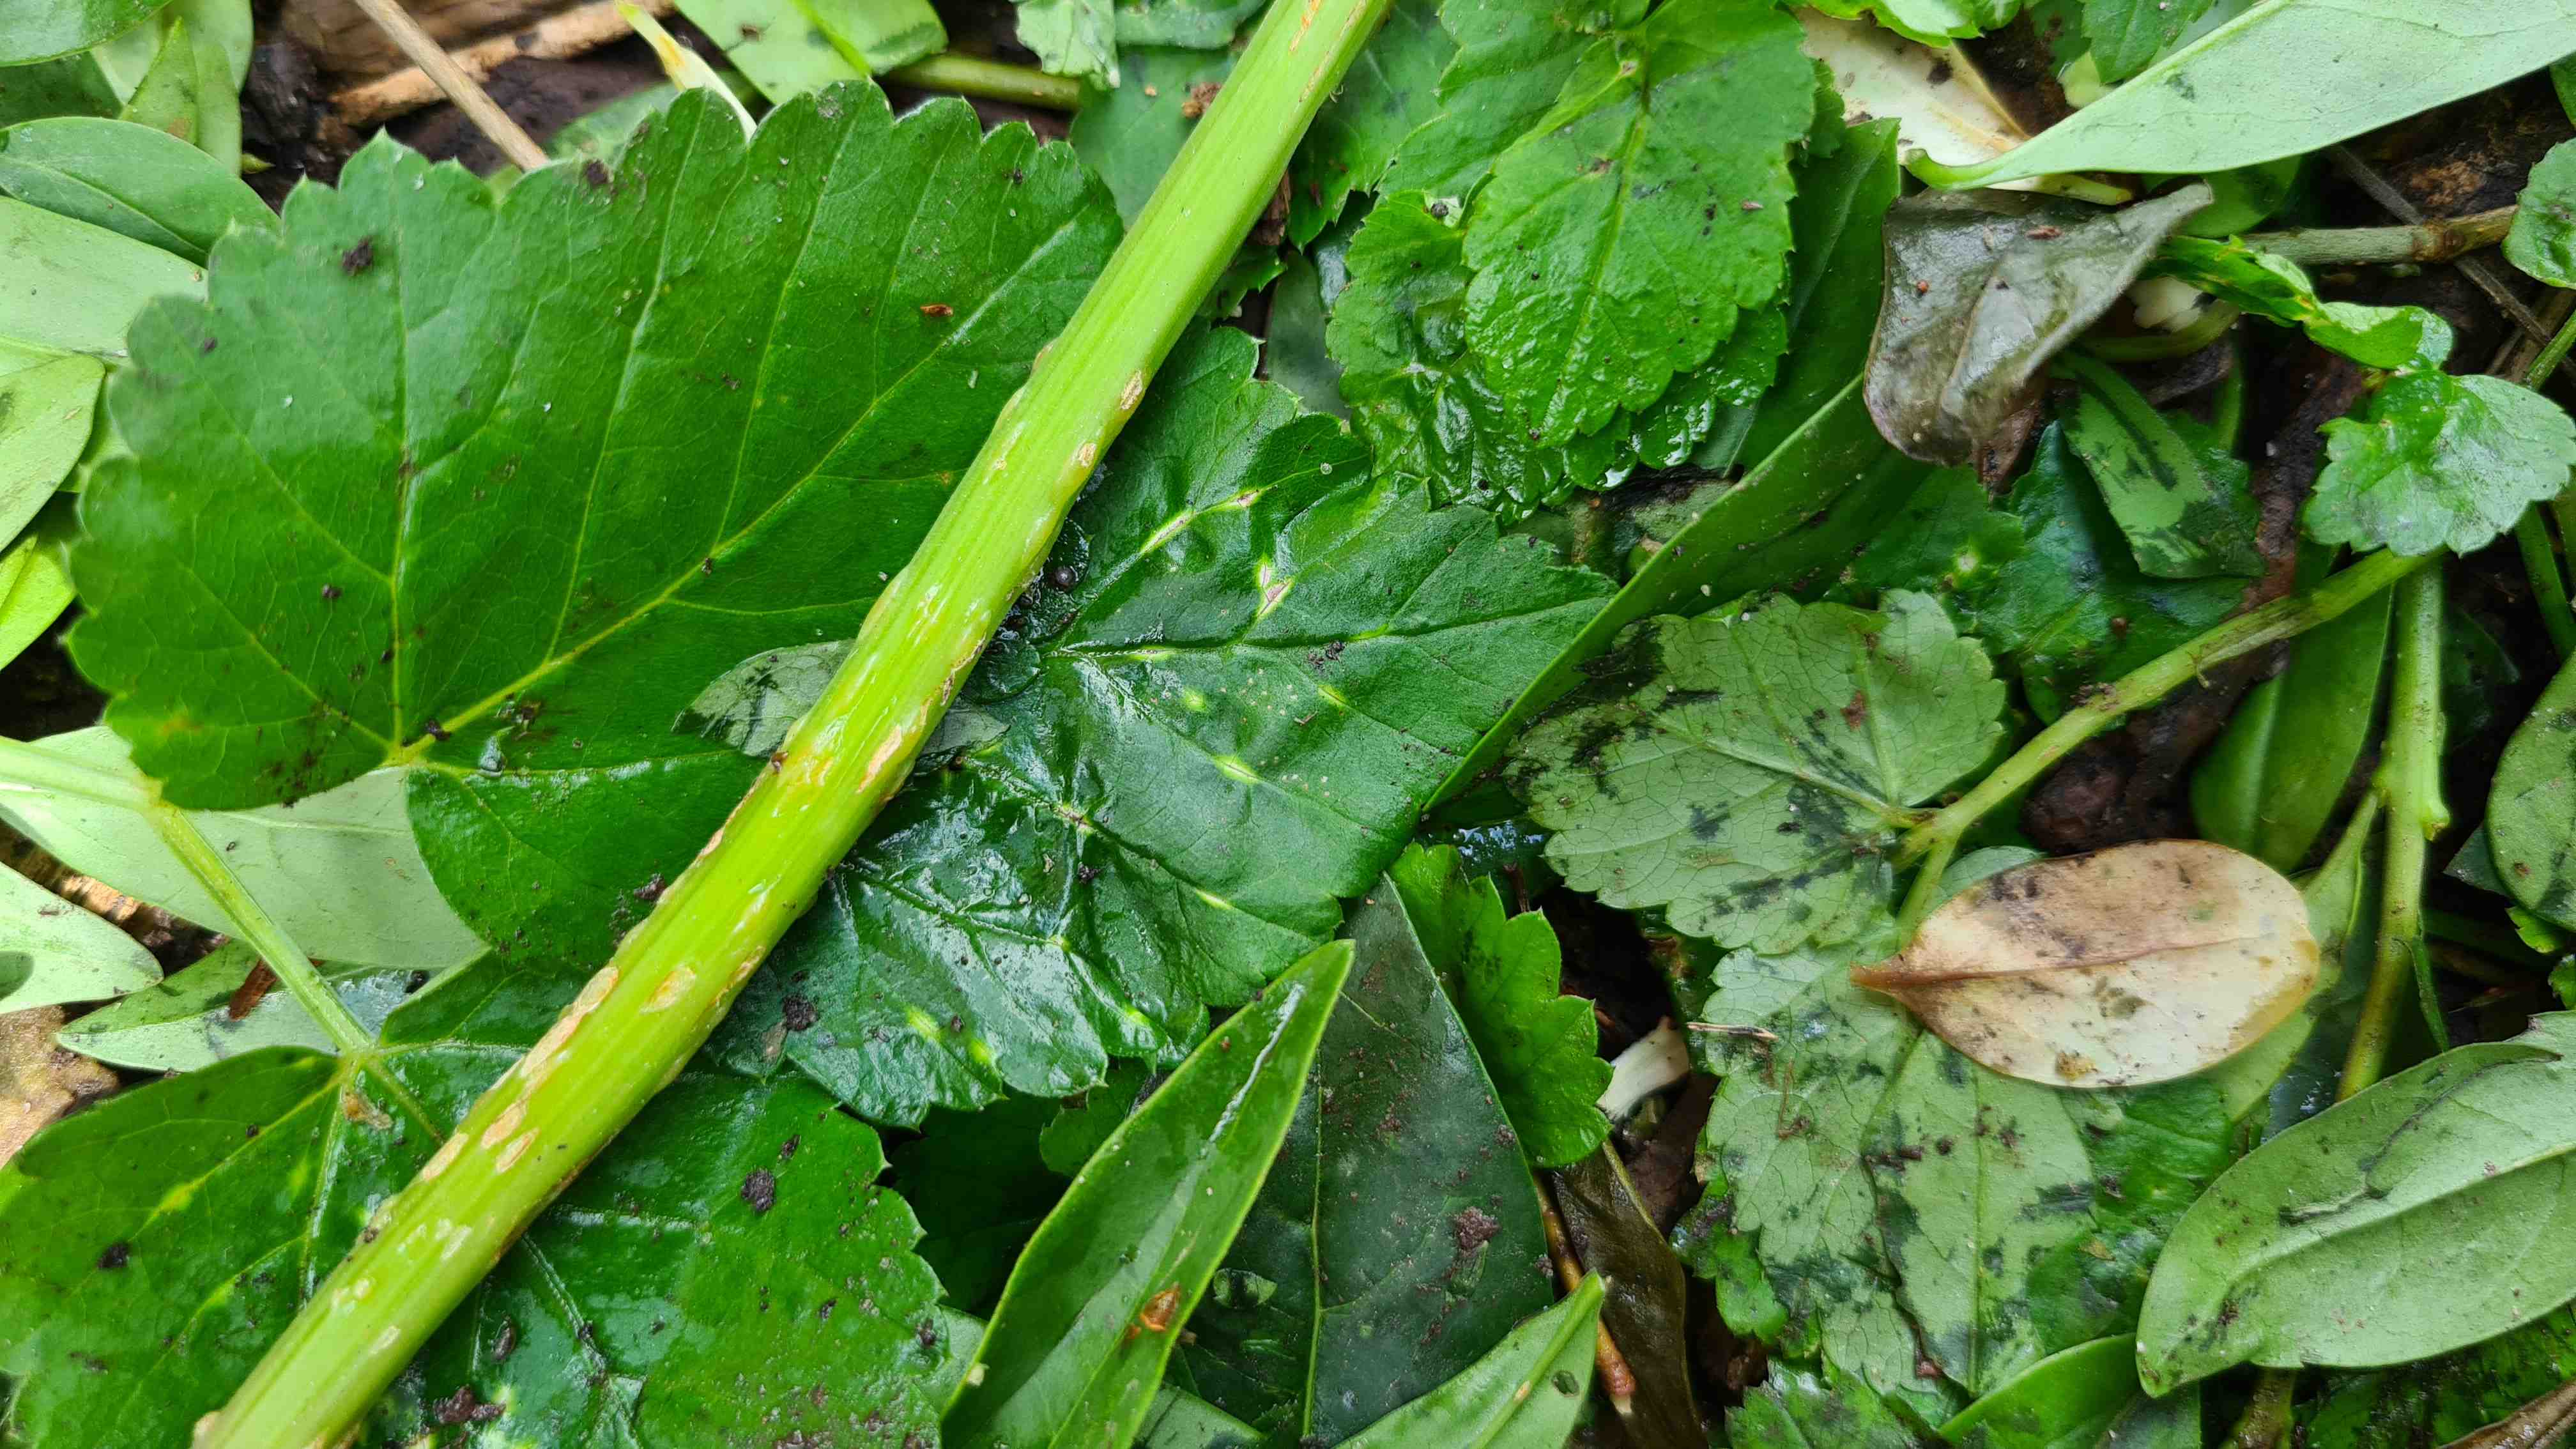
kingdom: Fungi
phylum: Ascomycota
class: Taphrinomycetes
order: Taphrinales
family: Taphrinaceae
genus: Protomyces
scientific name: Protomyces macrosporus
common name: skvalderkål-vablesæk
